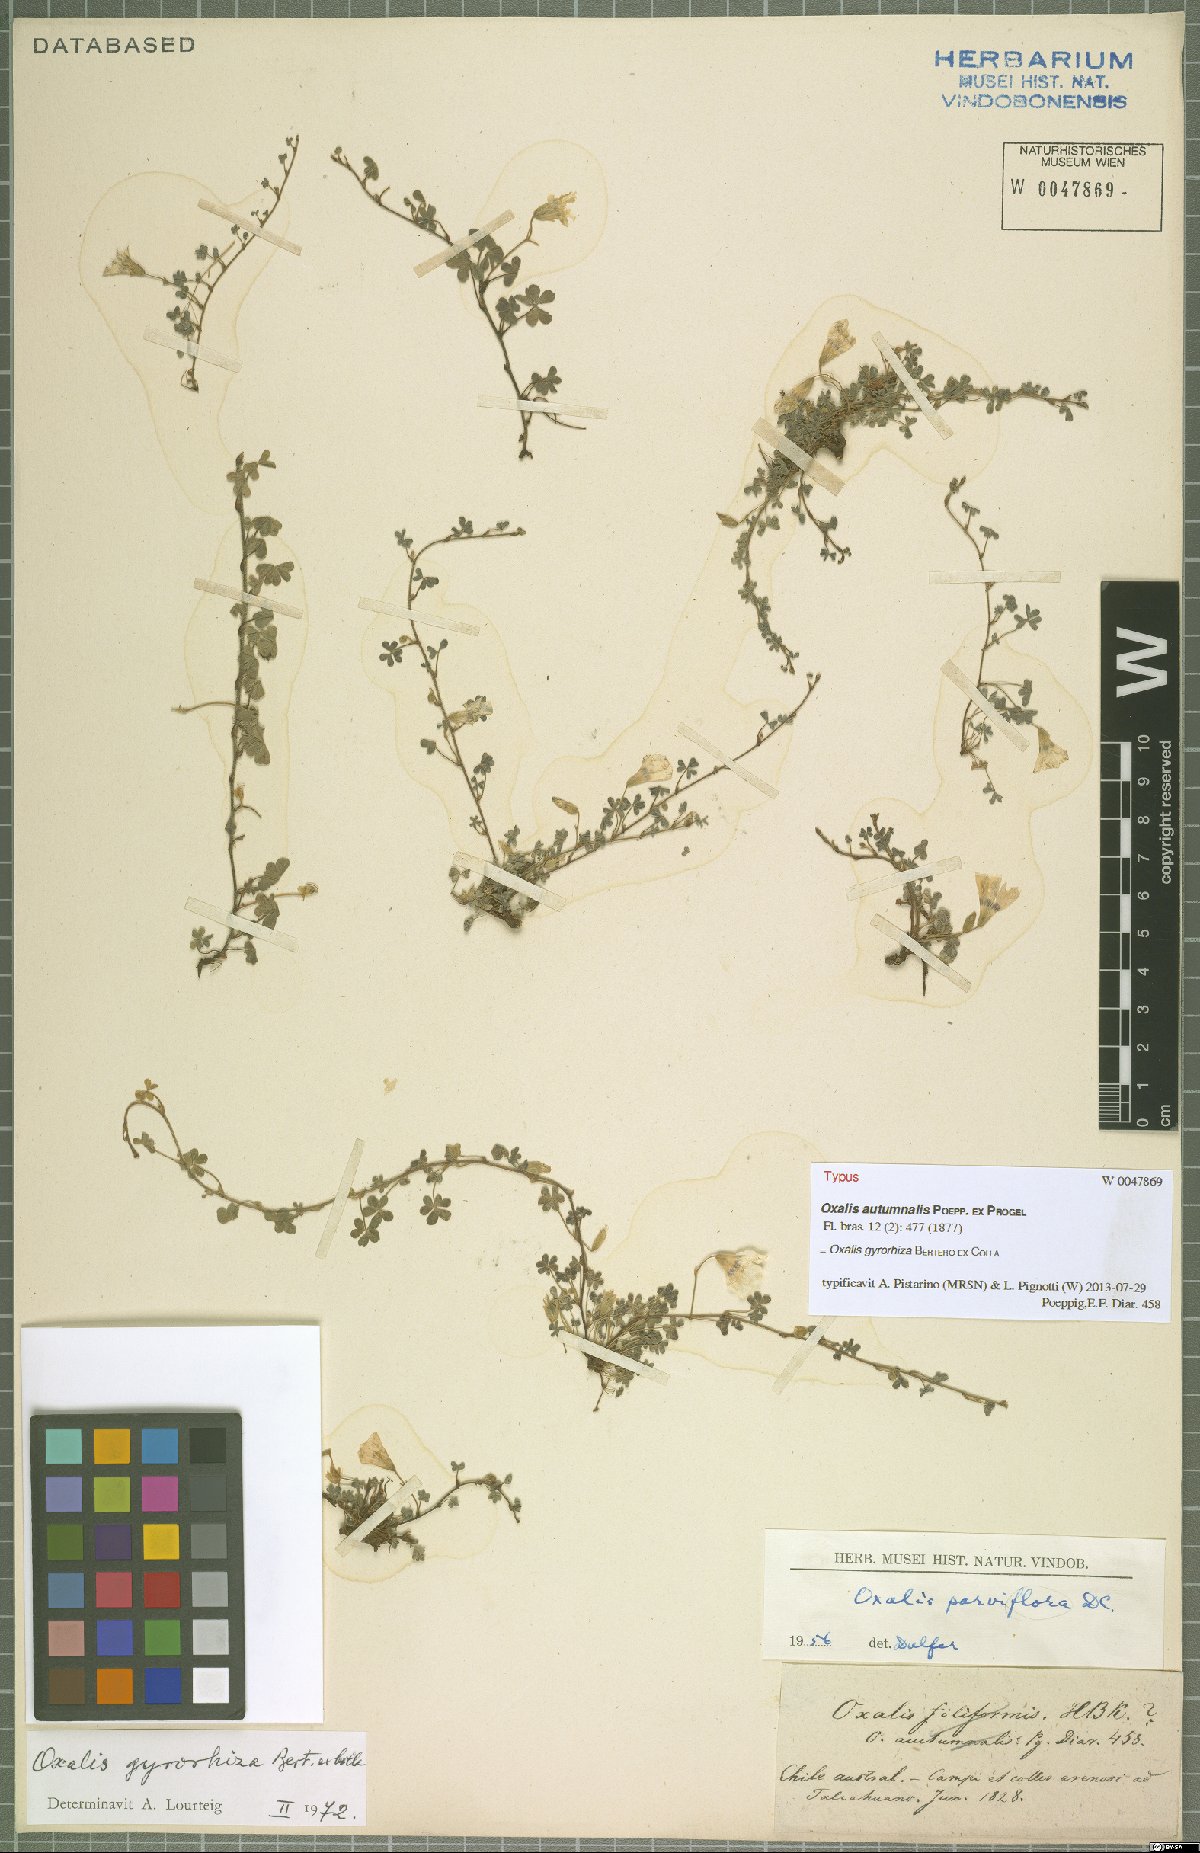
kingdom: Plantae
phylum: Tracheophyta
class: Magnoliopsida
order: Oxalidales
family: Oxalidaceae
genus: Oxalis
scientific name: Oxalis gyrorhiza
